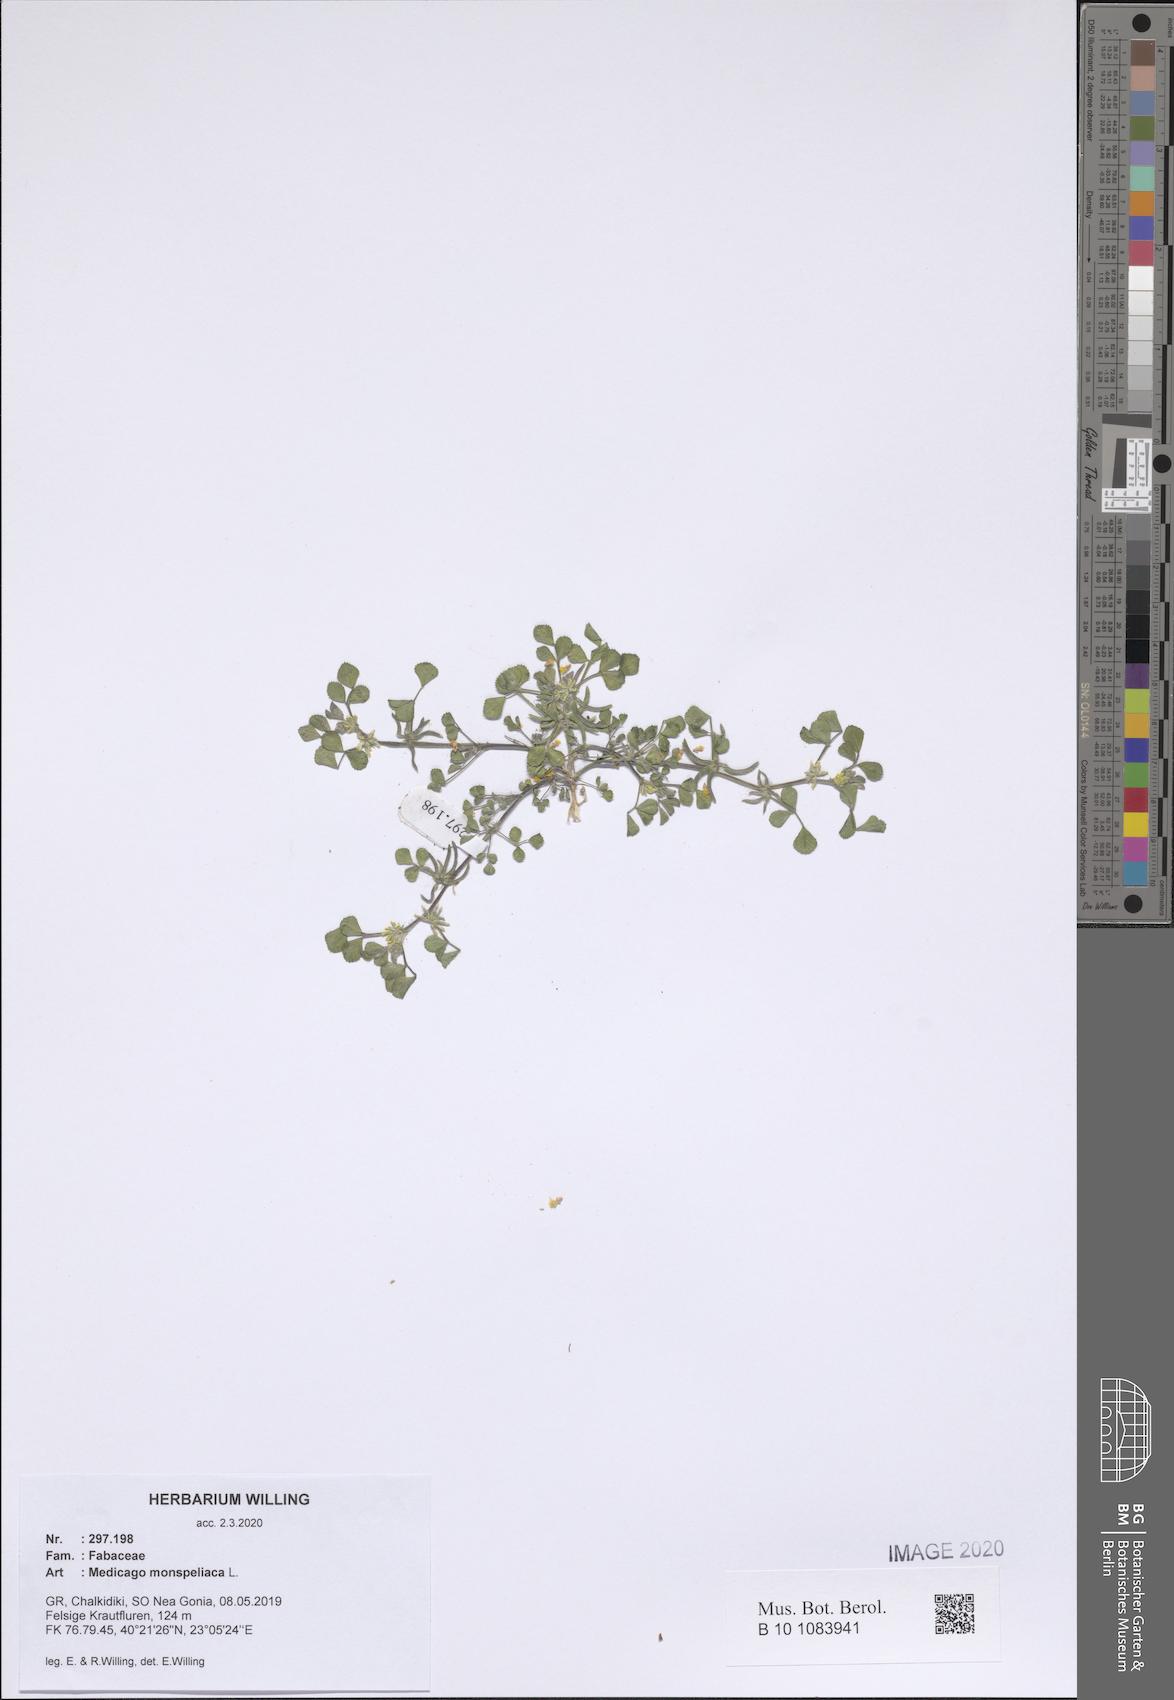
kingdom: Plantae
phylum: Tracheophyta
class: Magnoliopsida
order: Fabales
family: Fabaceae
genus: Medicago
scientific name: Medicago monspeliaca
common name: Hairy medick
